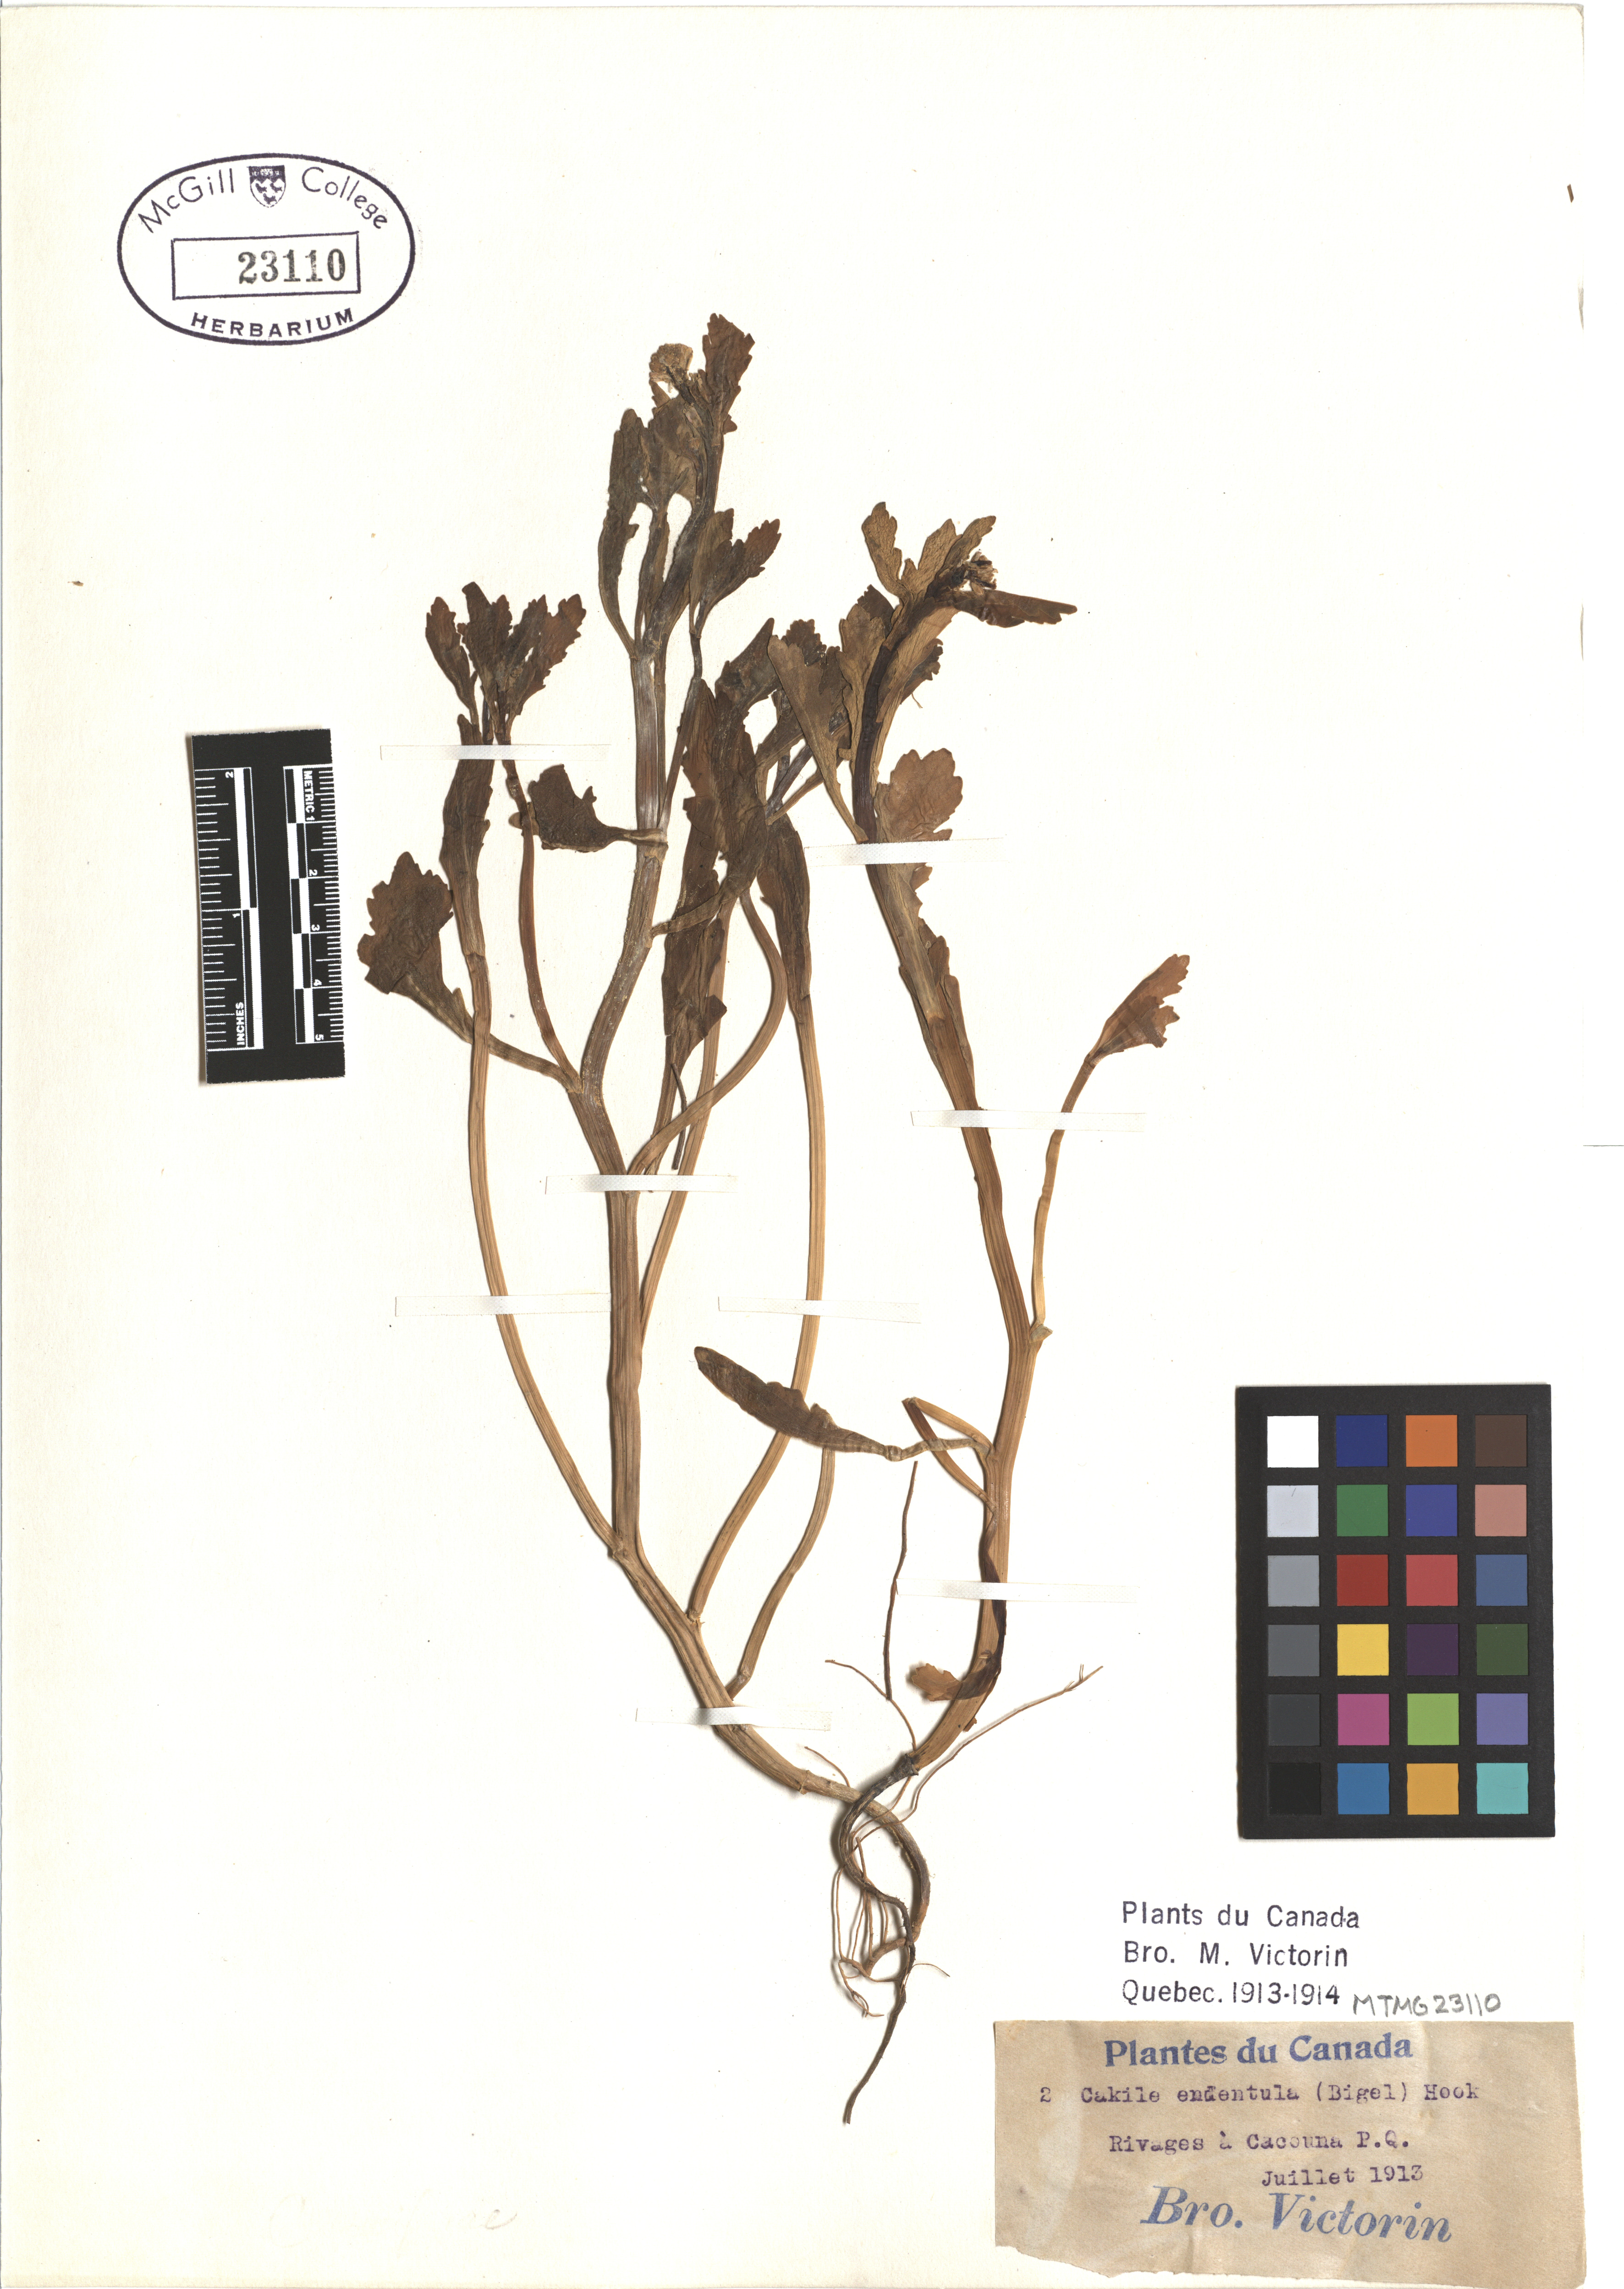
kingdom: Plantae
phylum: Tracheophyta
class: Magnoliopsida
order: Brassicales
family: Brassicaceae
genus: Cakile
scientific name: Cakile edentula
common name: American sea rocket
